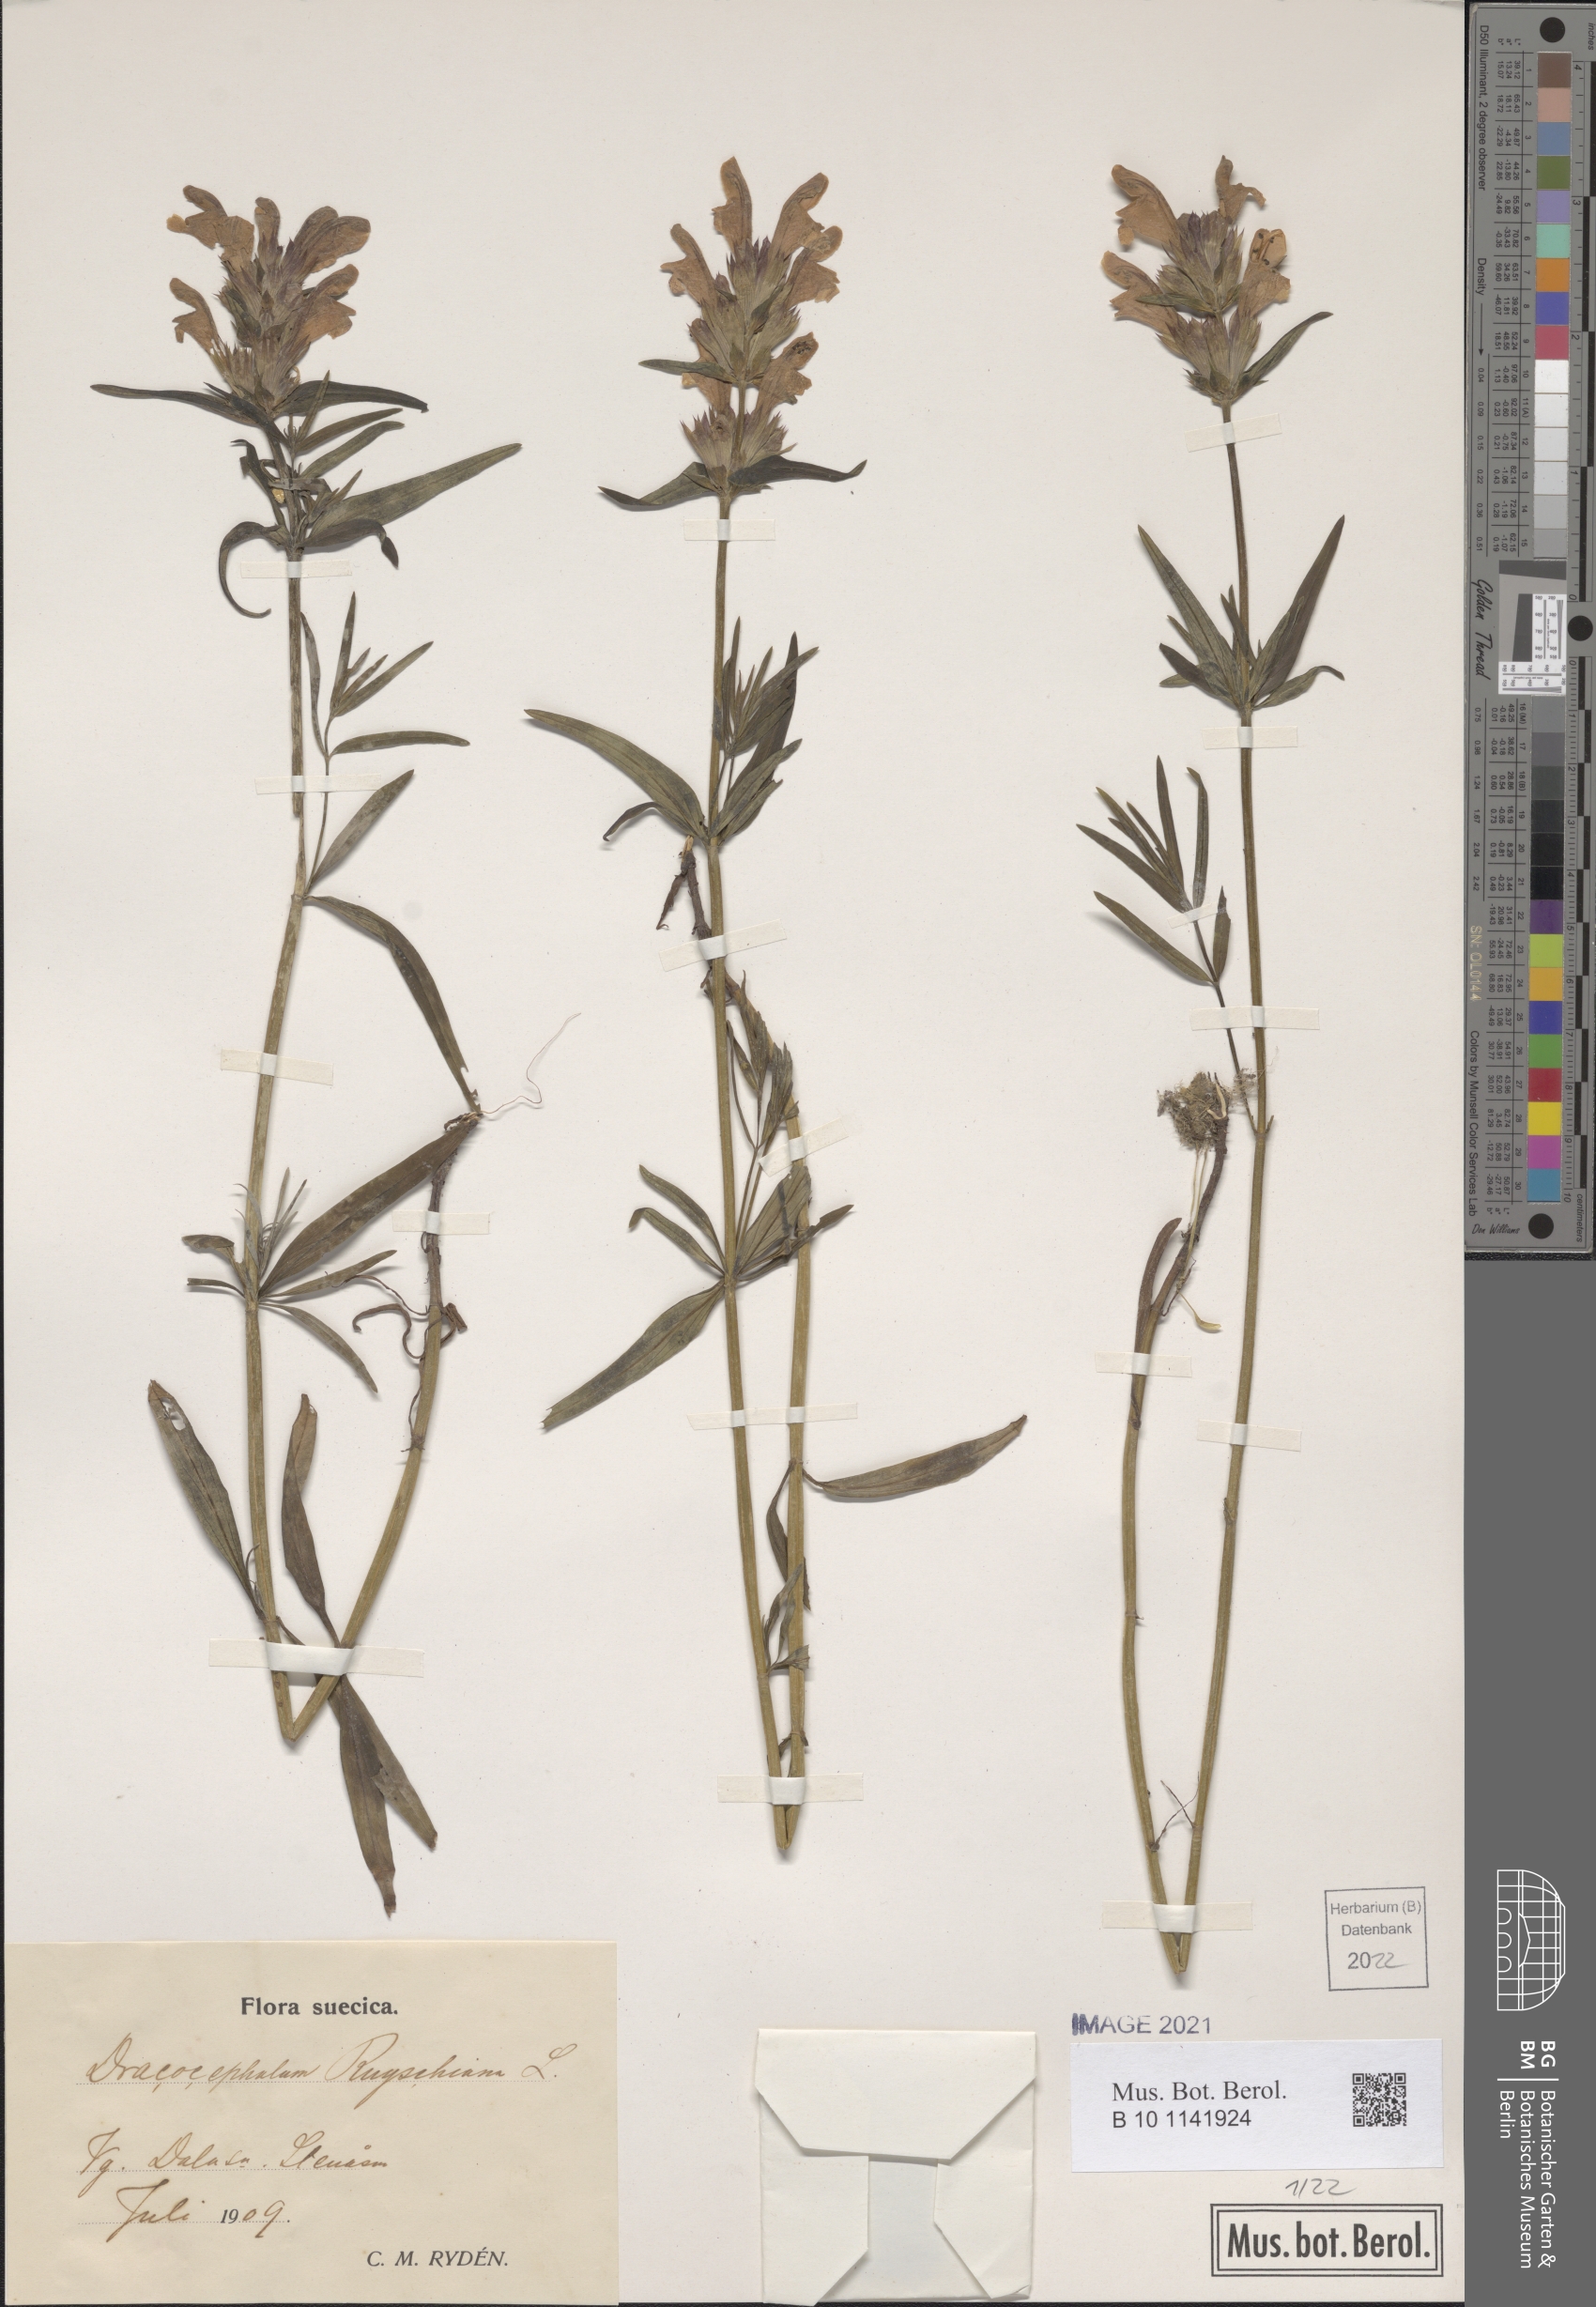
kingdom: Plantae
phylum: Tracheophyta
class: Magnoliopsida
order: Lamiales
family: Lamiaceae
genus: Dracocephalum
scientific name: Dracocephalum ruyschiana
